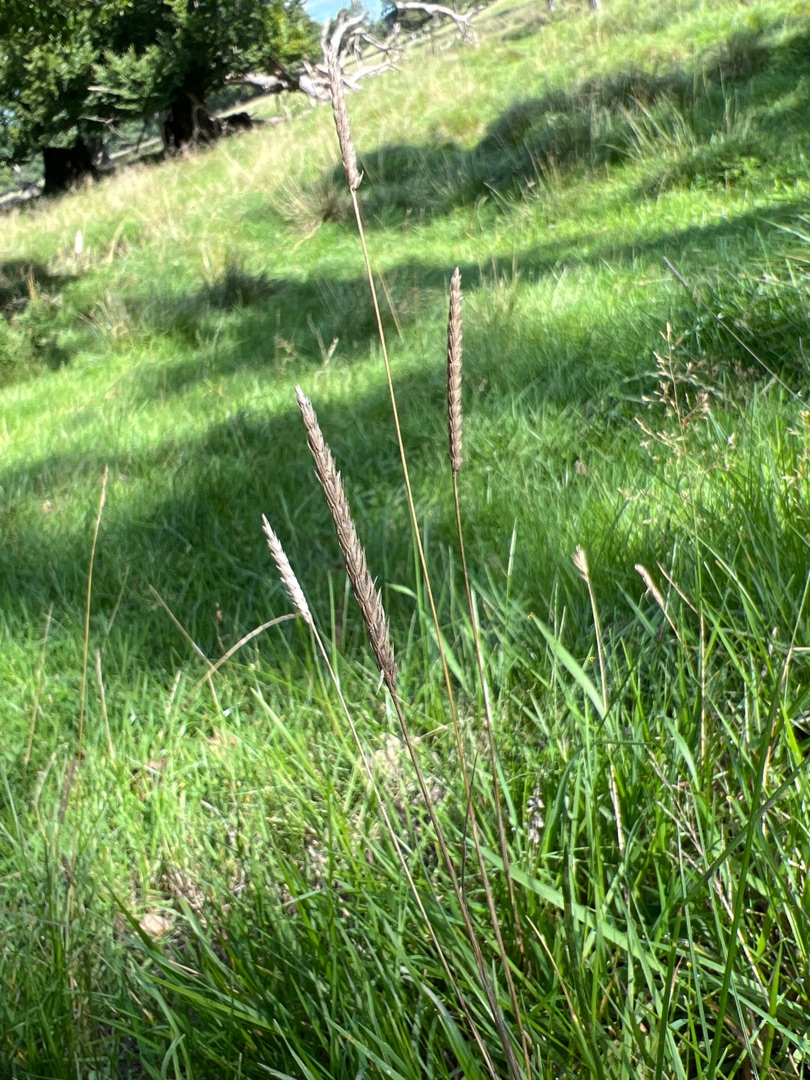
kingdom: Plantae
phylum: Tracheophyta
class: Liliopsida
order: Poales
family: Poaceae
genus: Cynosurus
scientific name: Cynosurus cristatus
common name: Kamgræs
